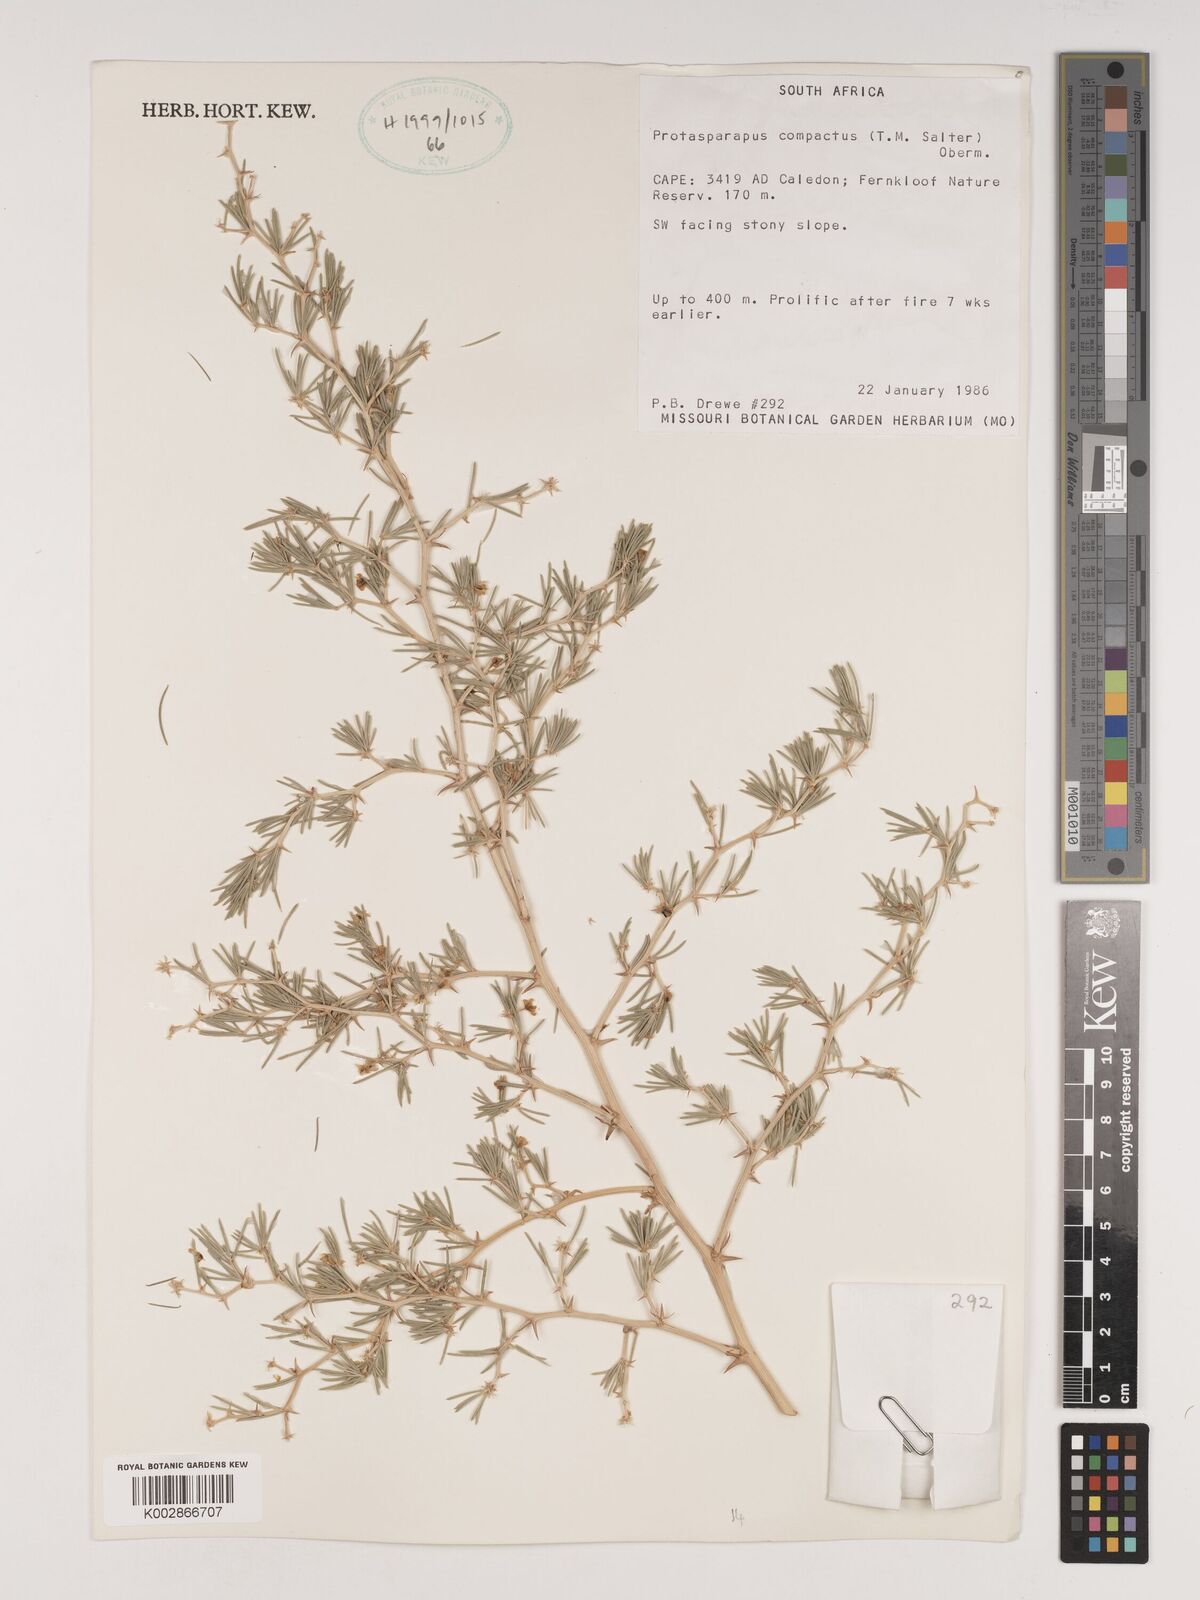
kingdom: Plantae
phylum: Tracheophyta
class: Liliopsida
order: Asparagales
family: Asparagaceae
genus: Asparagus
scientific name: Asparagus lignosus
